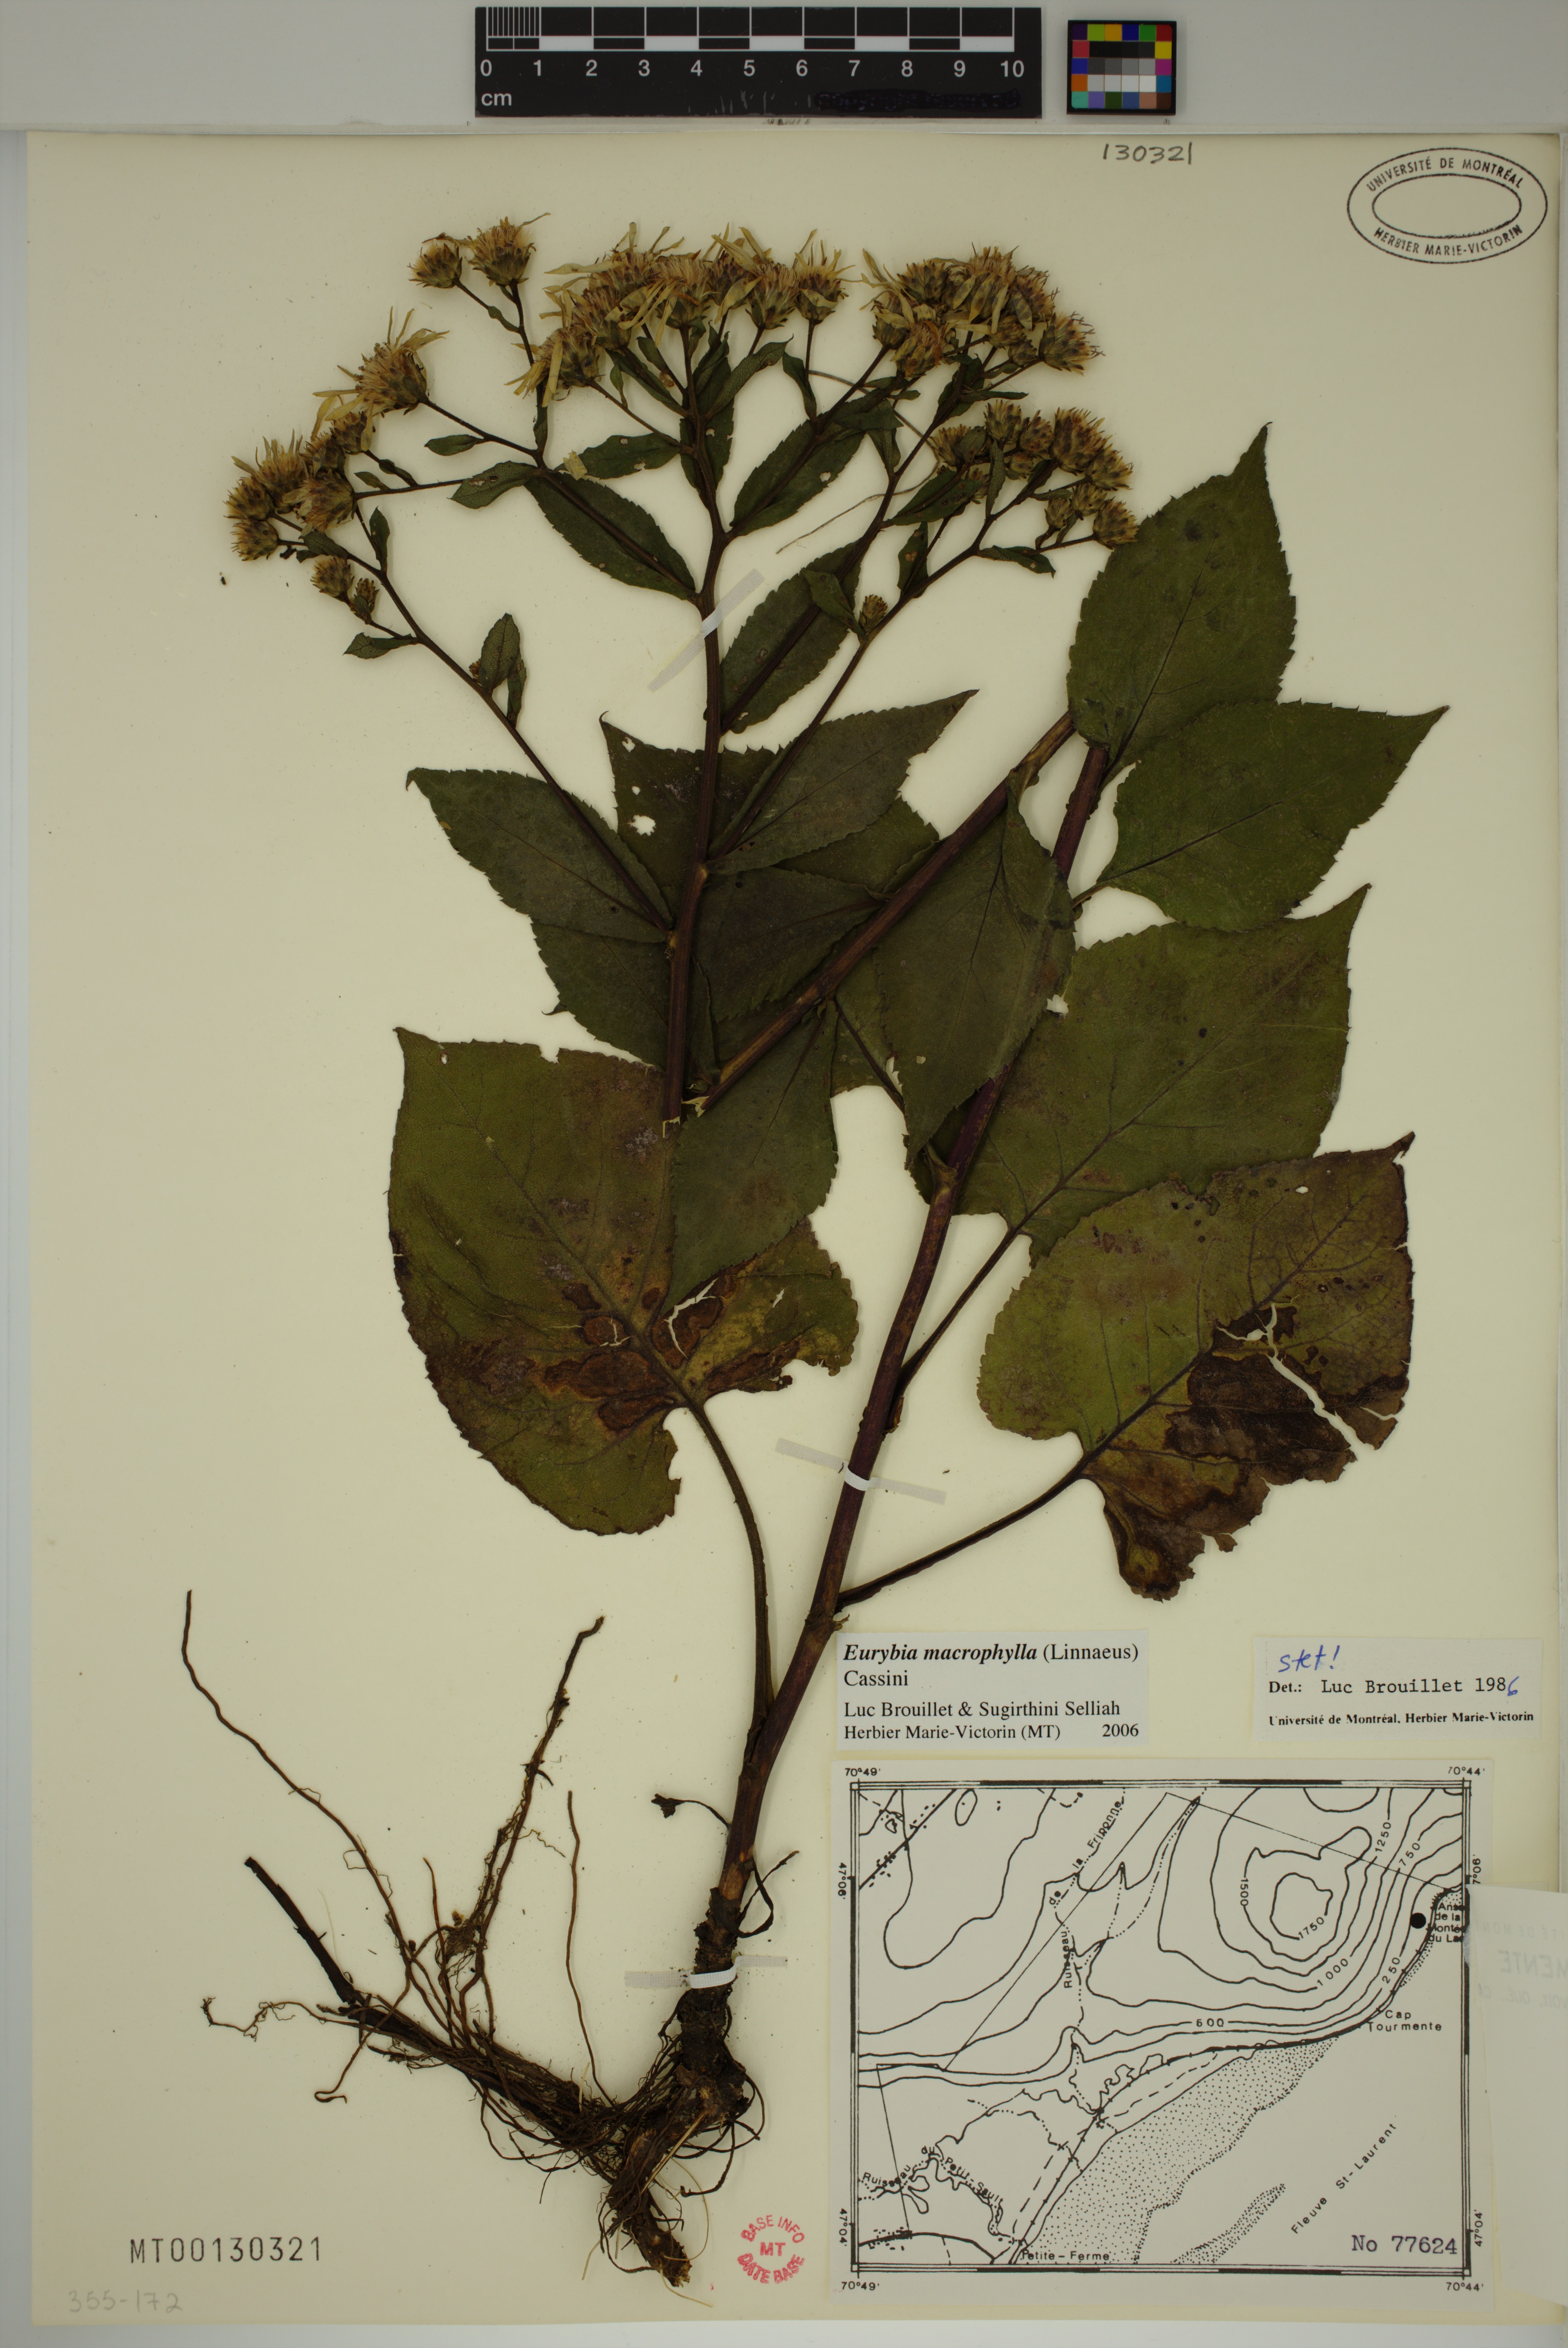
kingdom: Plantae
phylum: Tracheophyta
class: Magnoliopsida
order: Asterales
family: Asteraceae
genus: Eurybia
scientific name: Eurybia macrophylla
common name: Big-leaved aster
